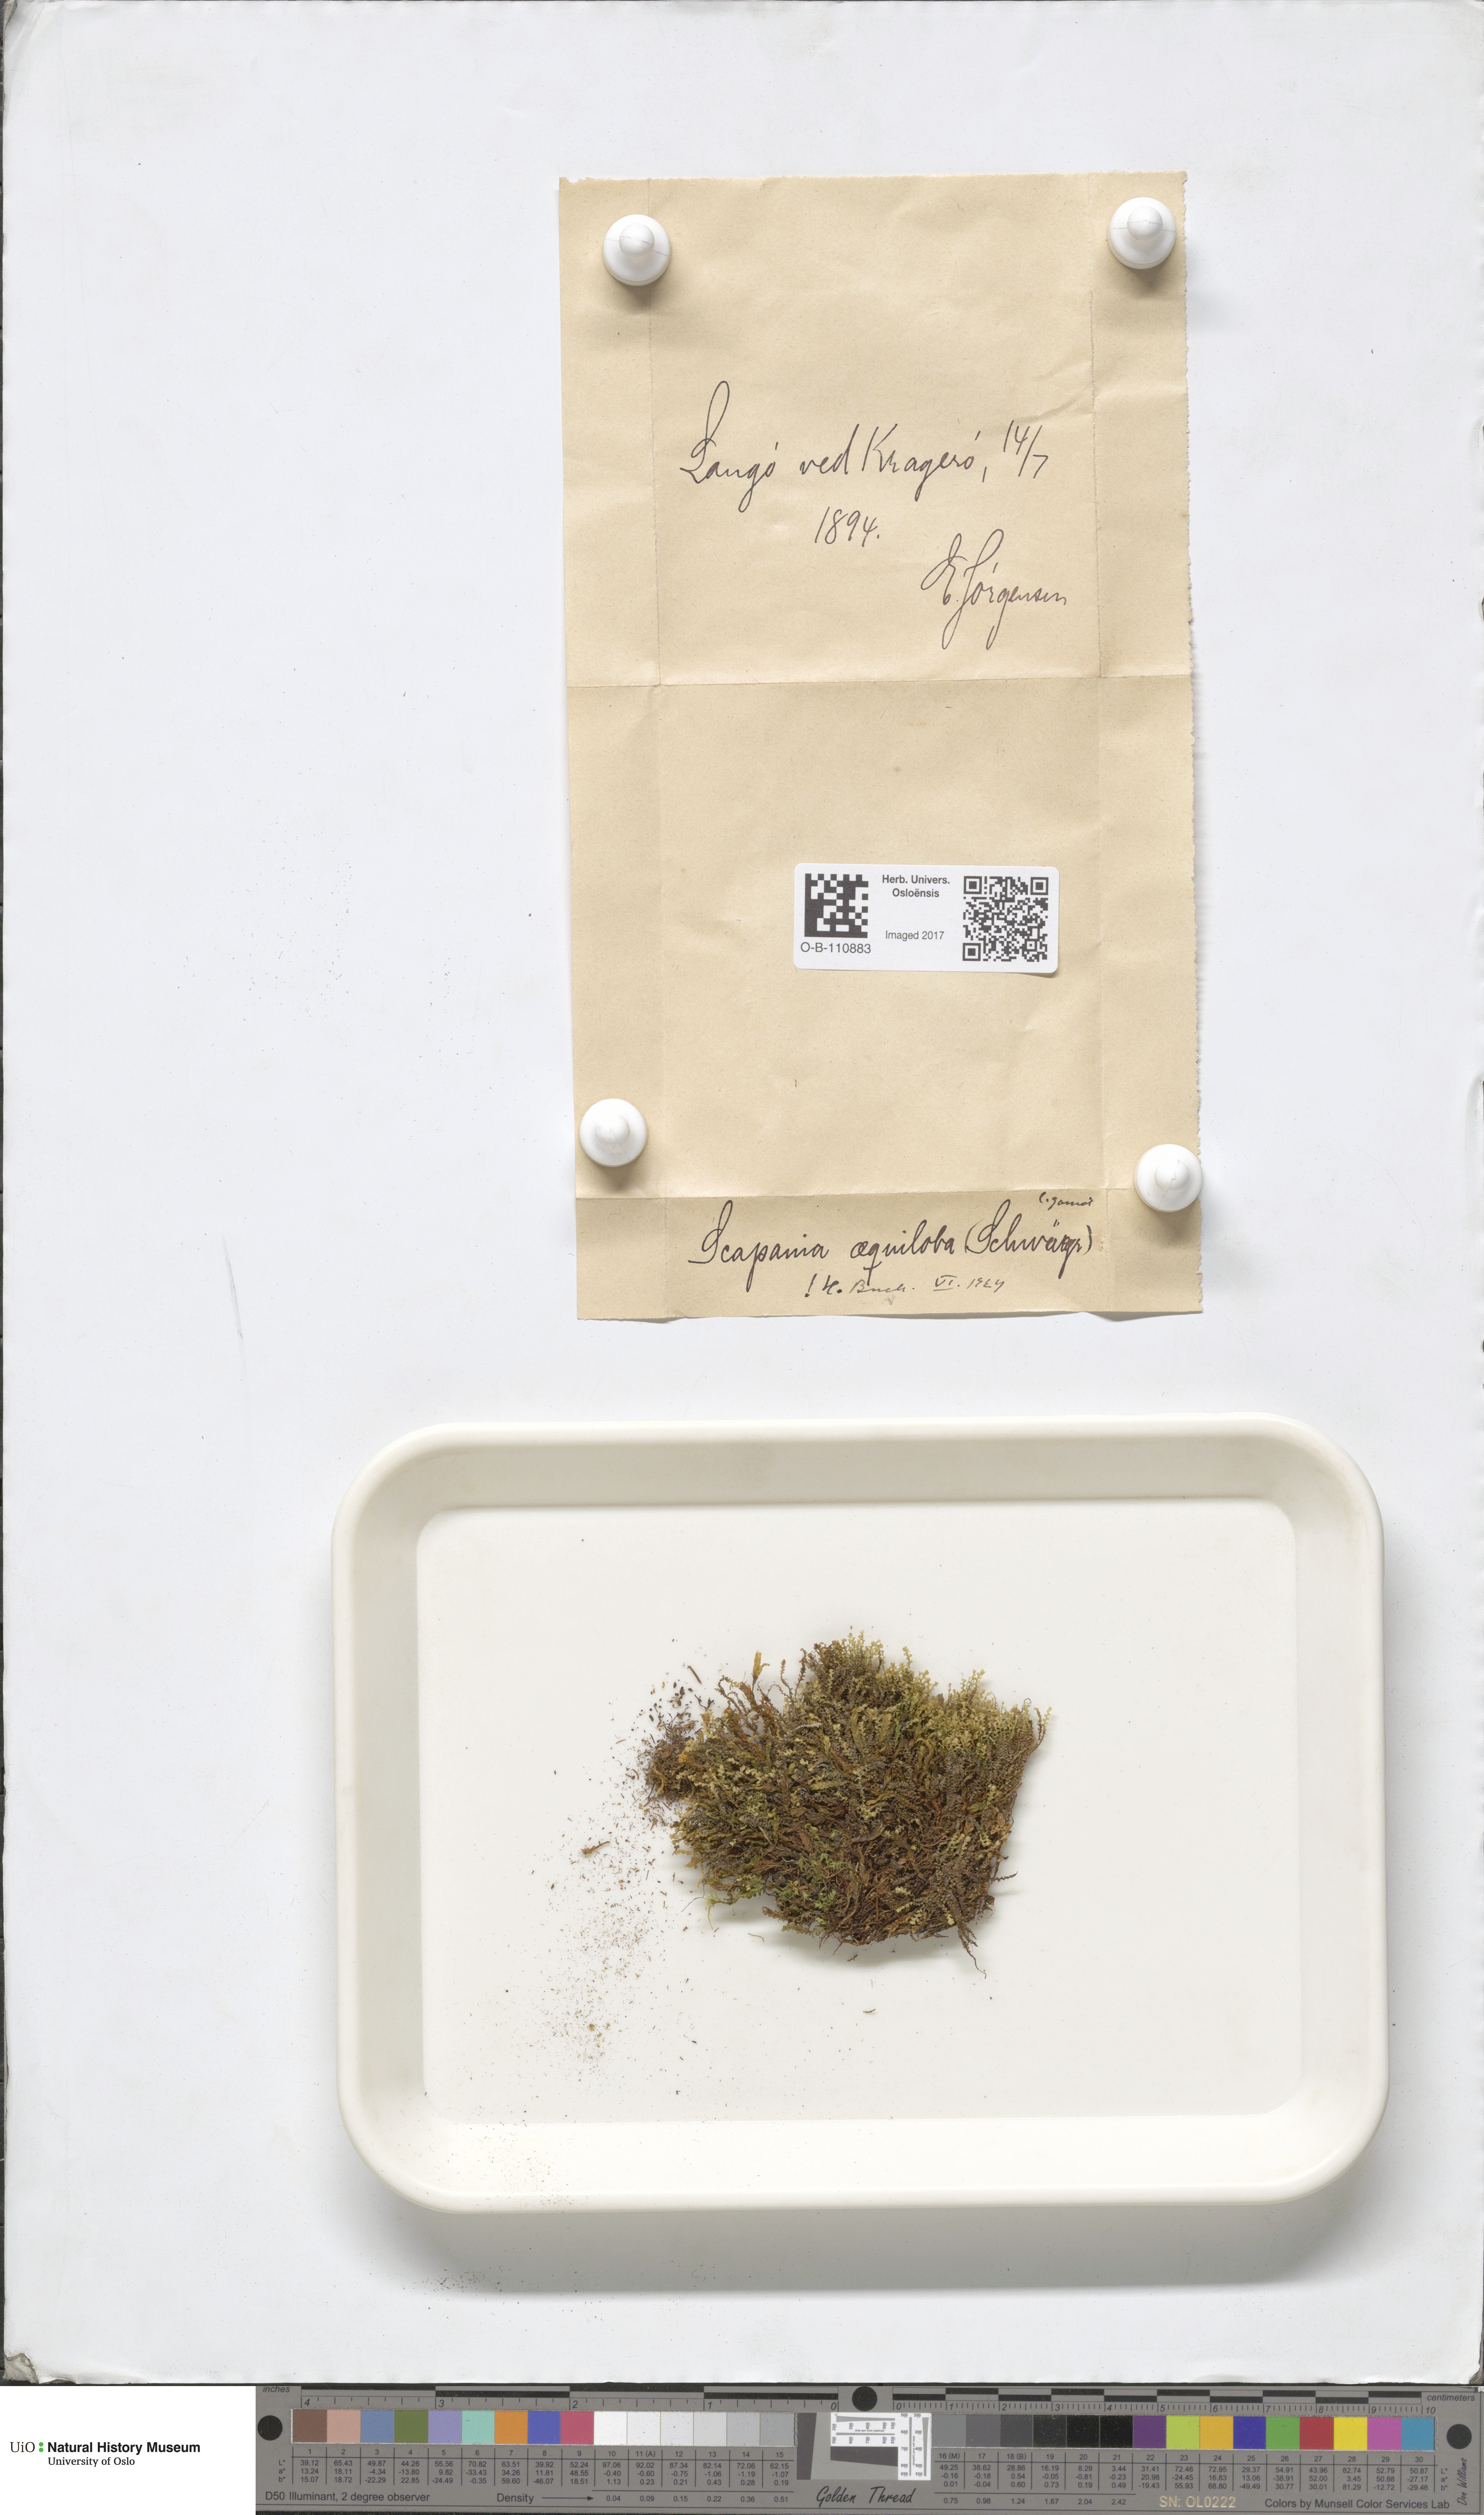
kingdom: Plantae
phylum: Marchantiophyta
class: Jungermanniopsida
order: Jungermanniales
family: Scapaniaceae
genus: Scapania
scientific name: Scapania aequiloba
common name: Lesser rough earwort
